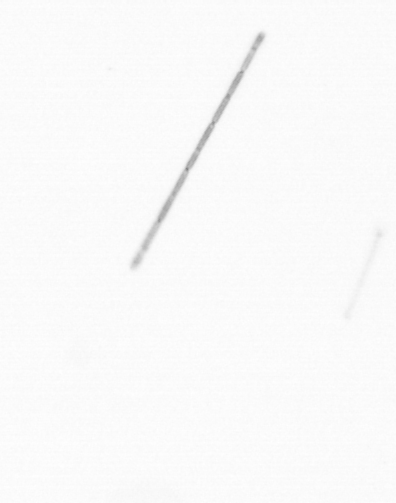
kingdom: Chromista
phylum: Ochrophyta
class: Bacillariophyceae
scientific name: Bacillariophyceae
